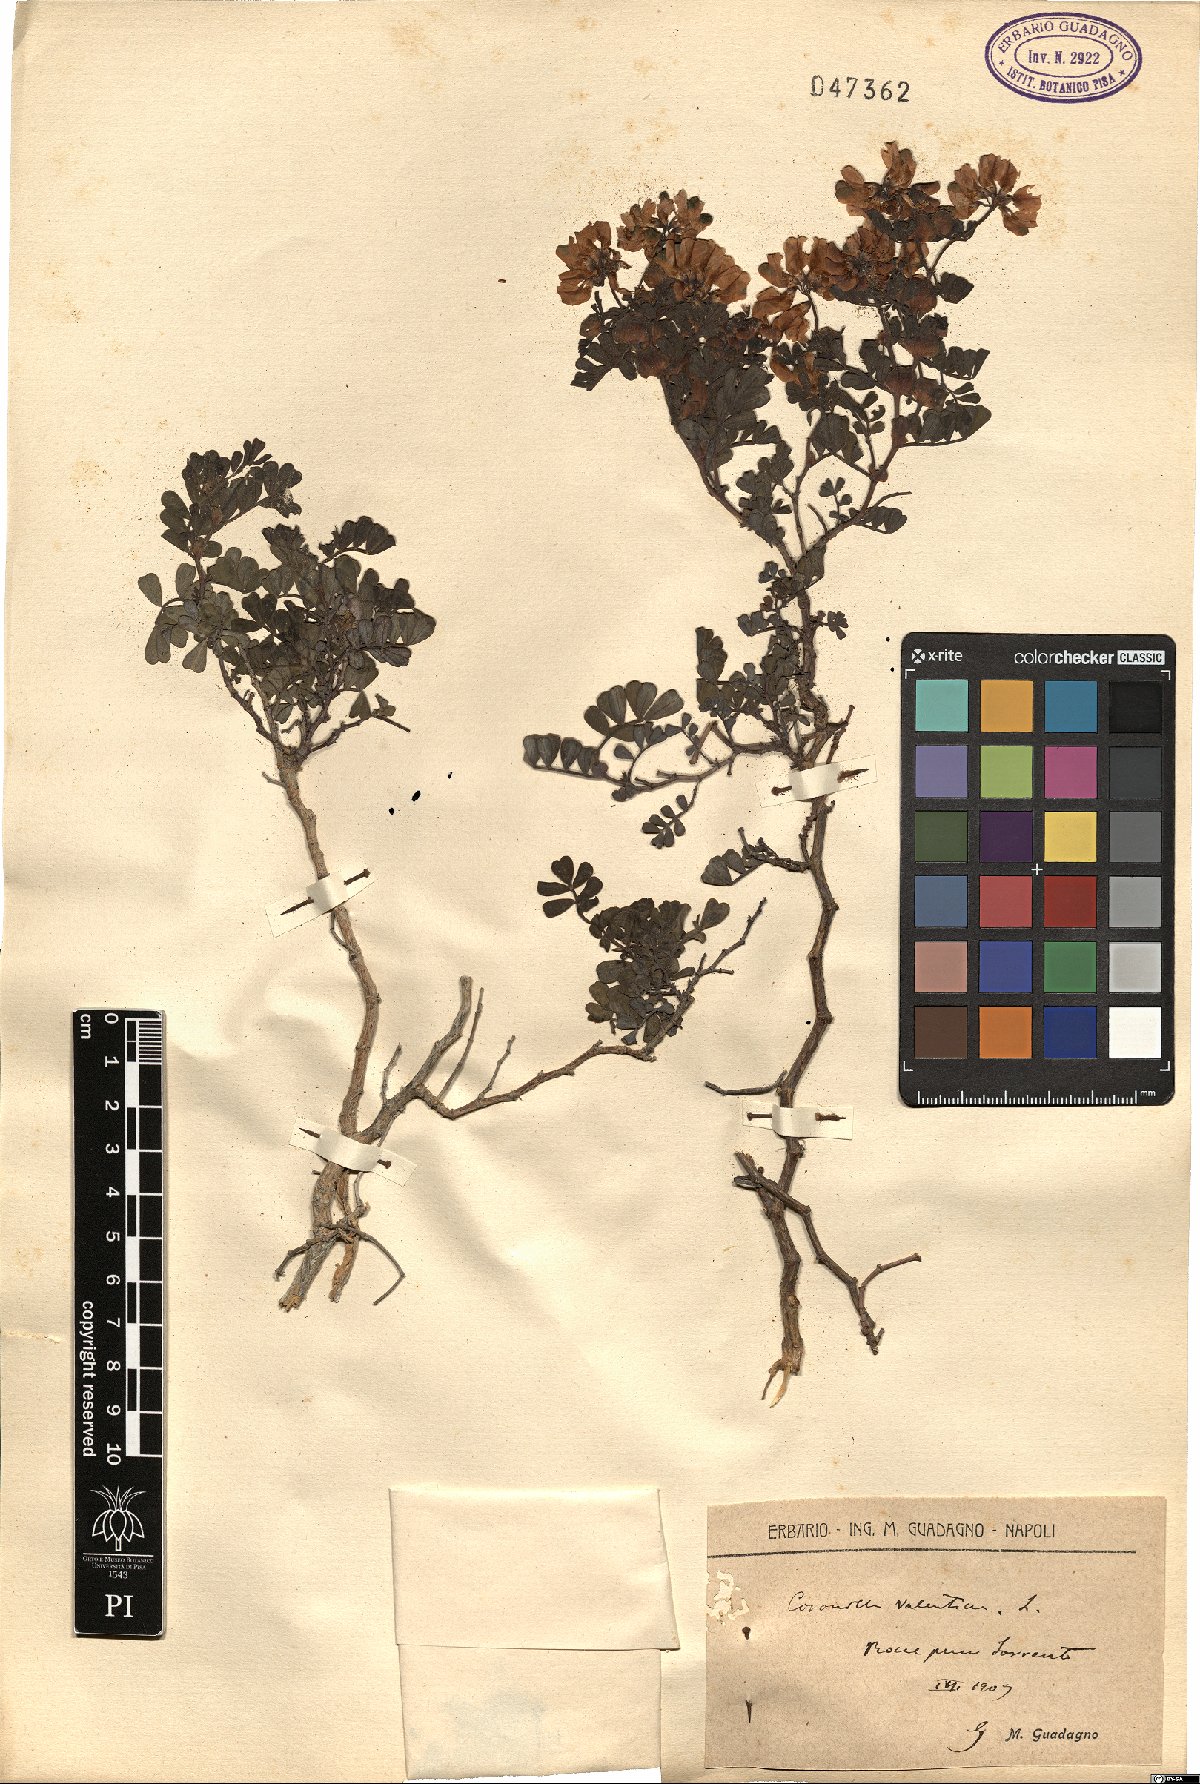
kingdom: Plantae
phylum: Tracheophyta
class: Magnoliopsida
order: Fabales
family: Fabaceae
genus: Coronilla
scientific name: Coronilla valentina
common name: Shrubby scorpion-vetch
